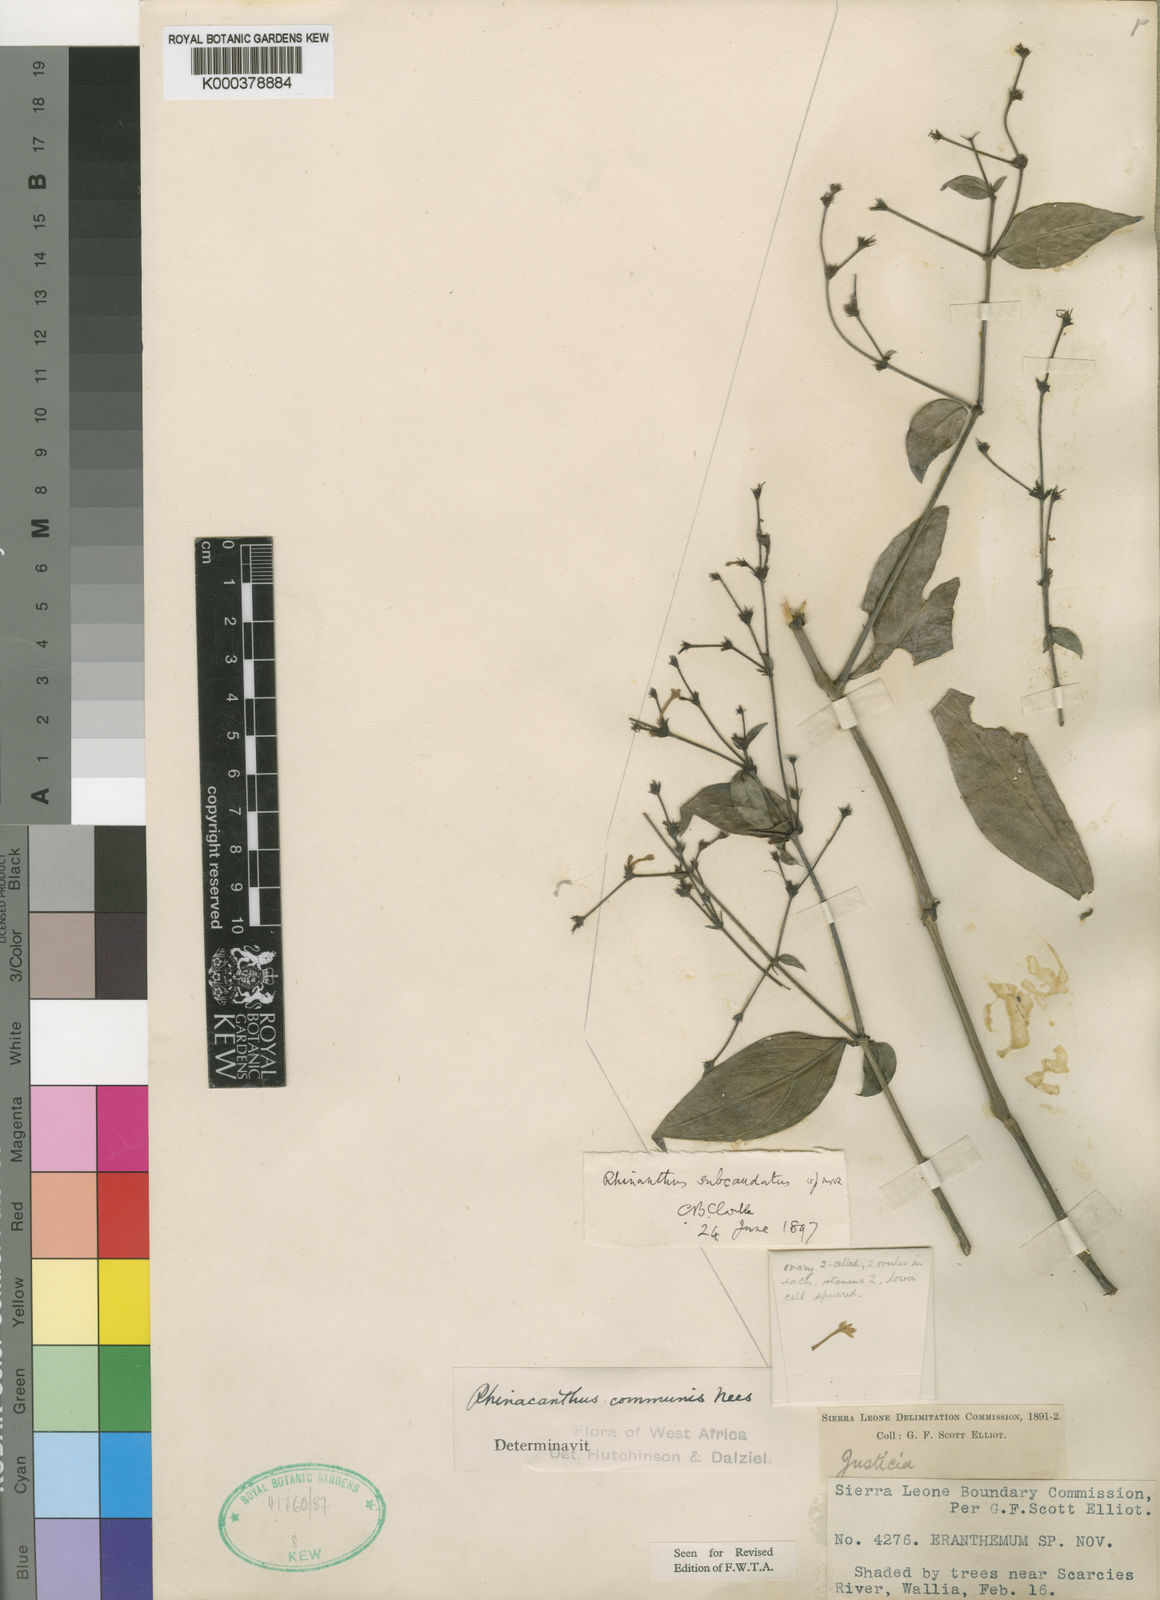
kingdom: Plantae
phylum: Tracheophyta
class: Magnoliopsida
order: Lamiales
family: Acanthaceae
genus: Rhinacanthus
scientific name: Rhinacanthus virens
